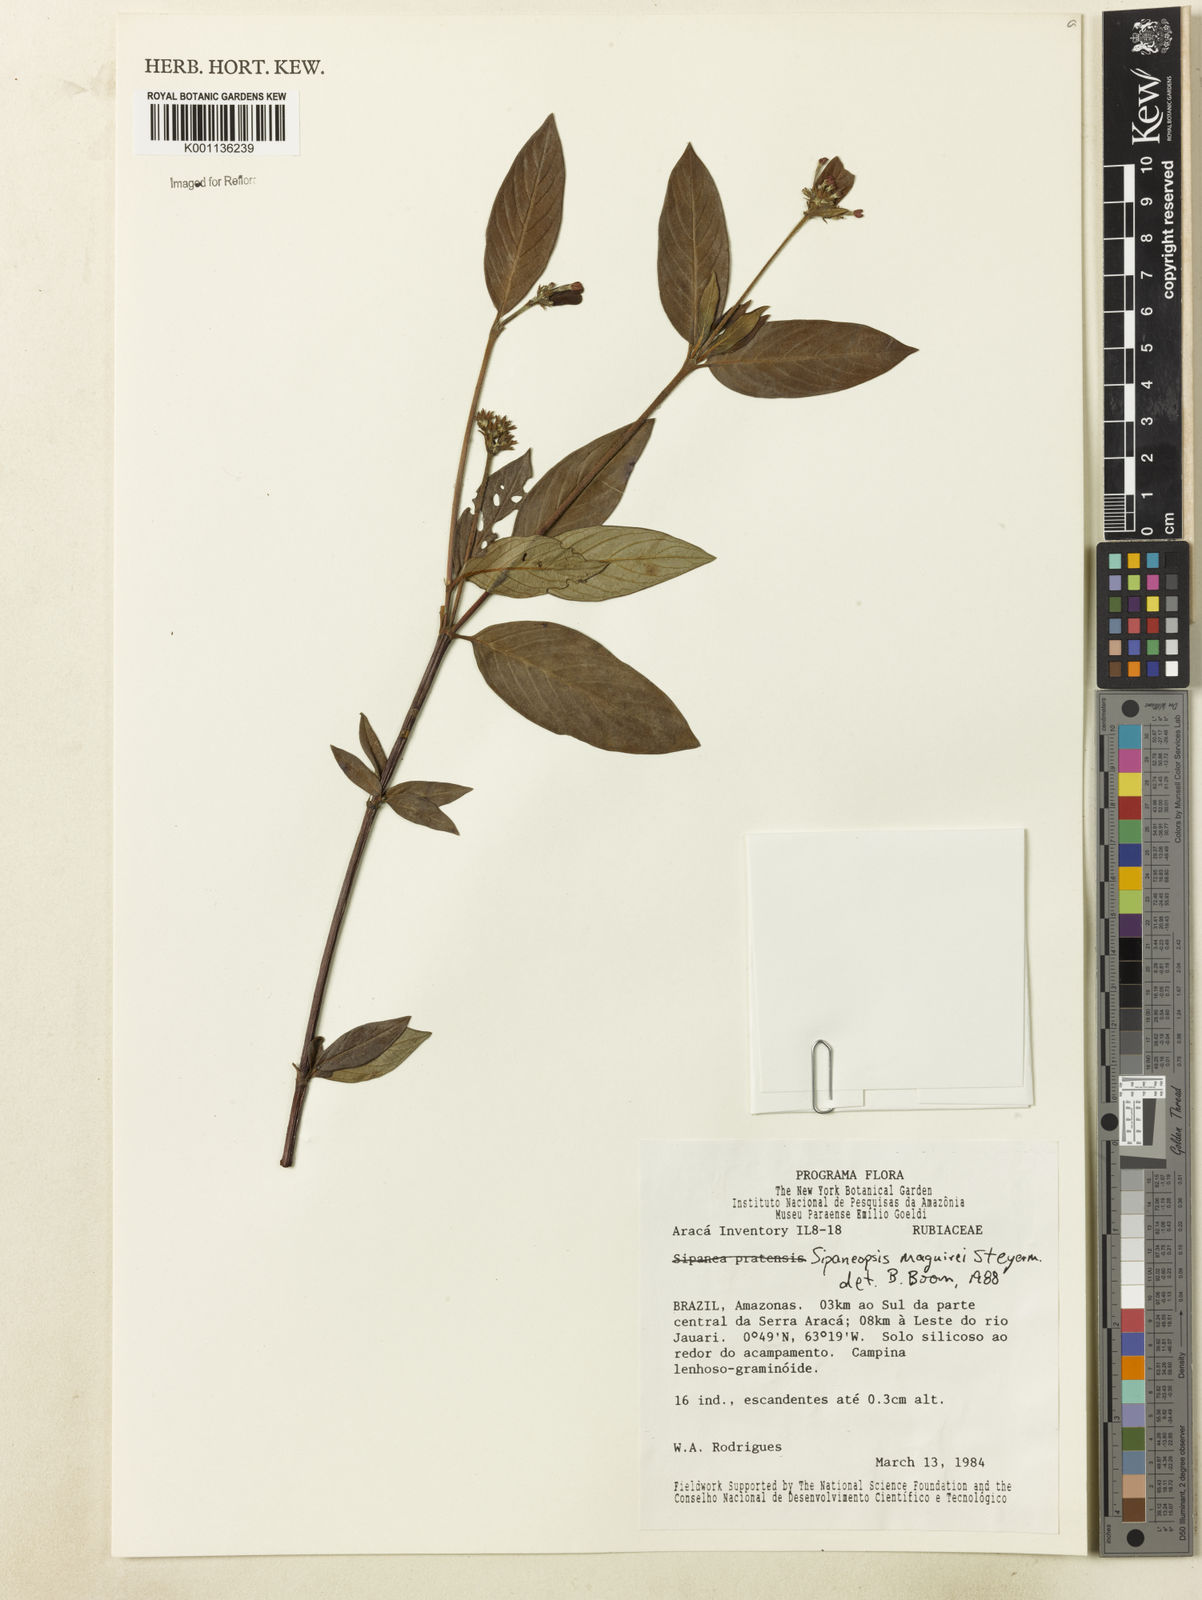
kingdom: Plantae
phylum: Tracheophyta
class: Magnoliopsida
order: Gentianales
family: Rubiaceae
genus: Sipaneopsis
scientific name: Sipaneopsis maguirei
